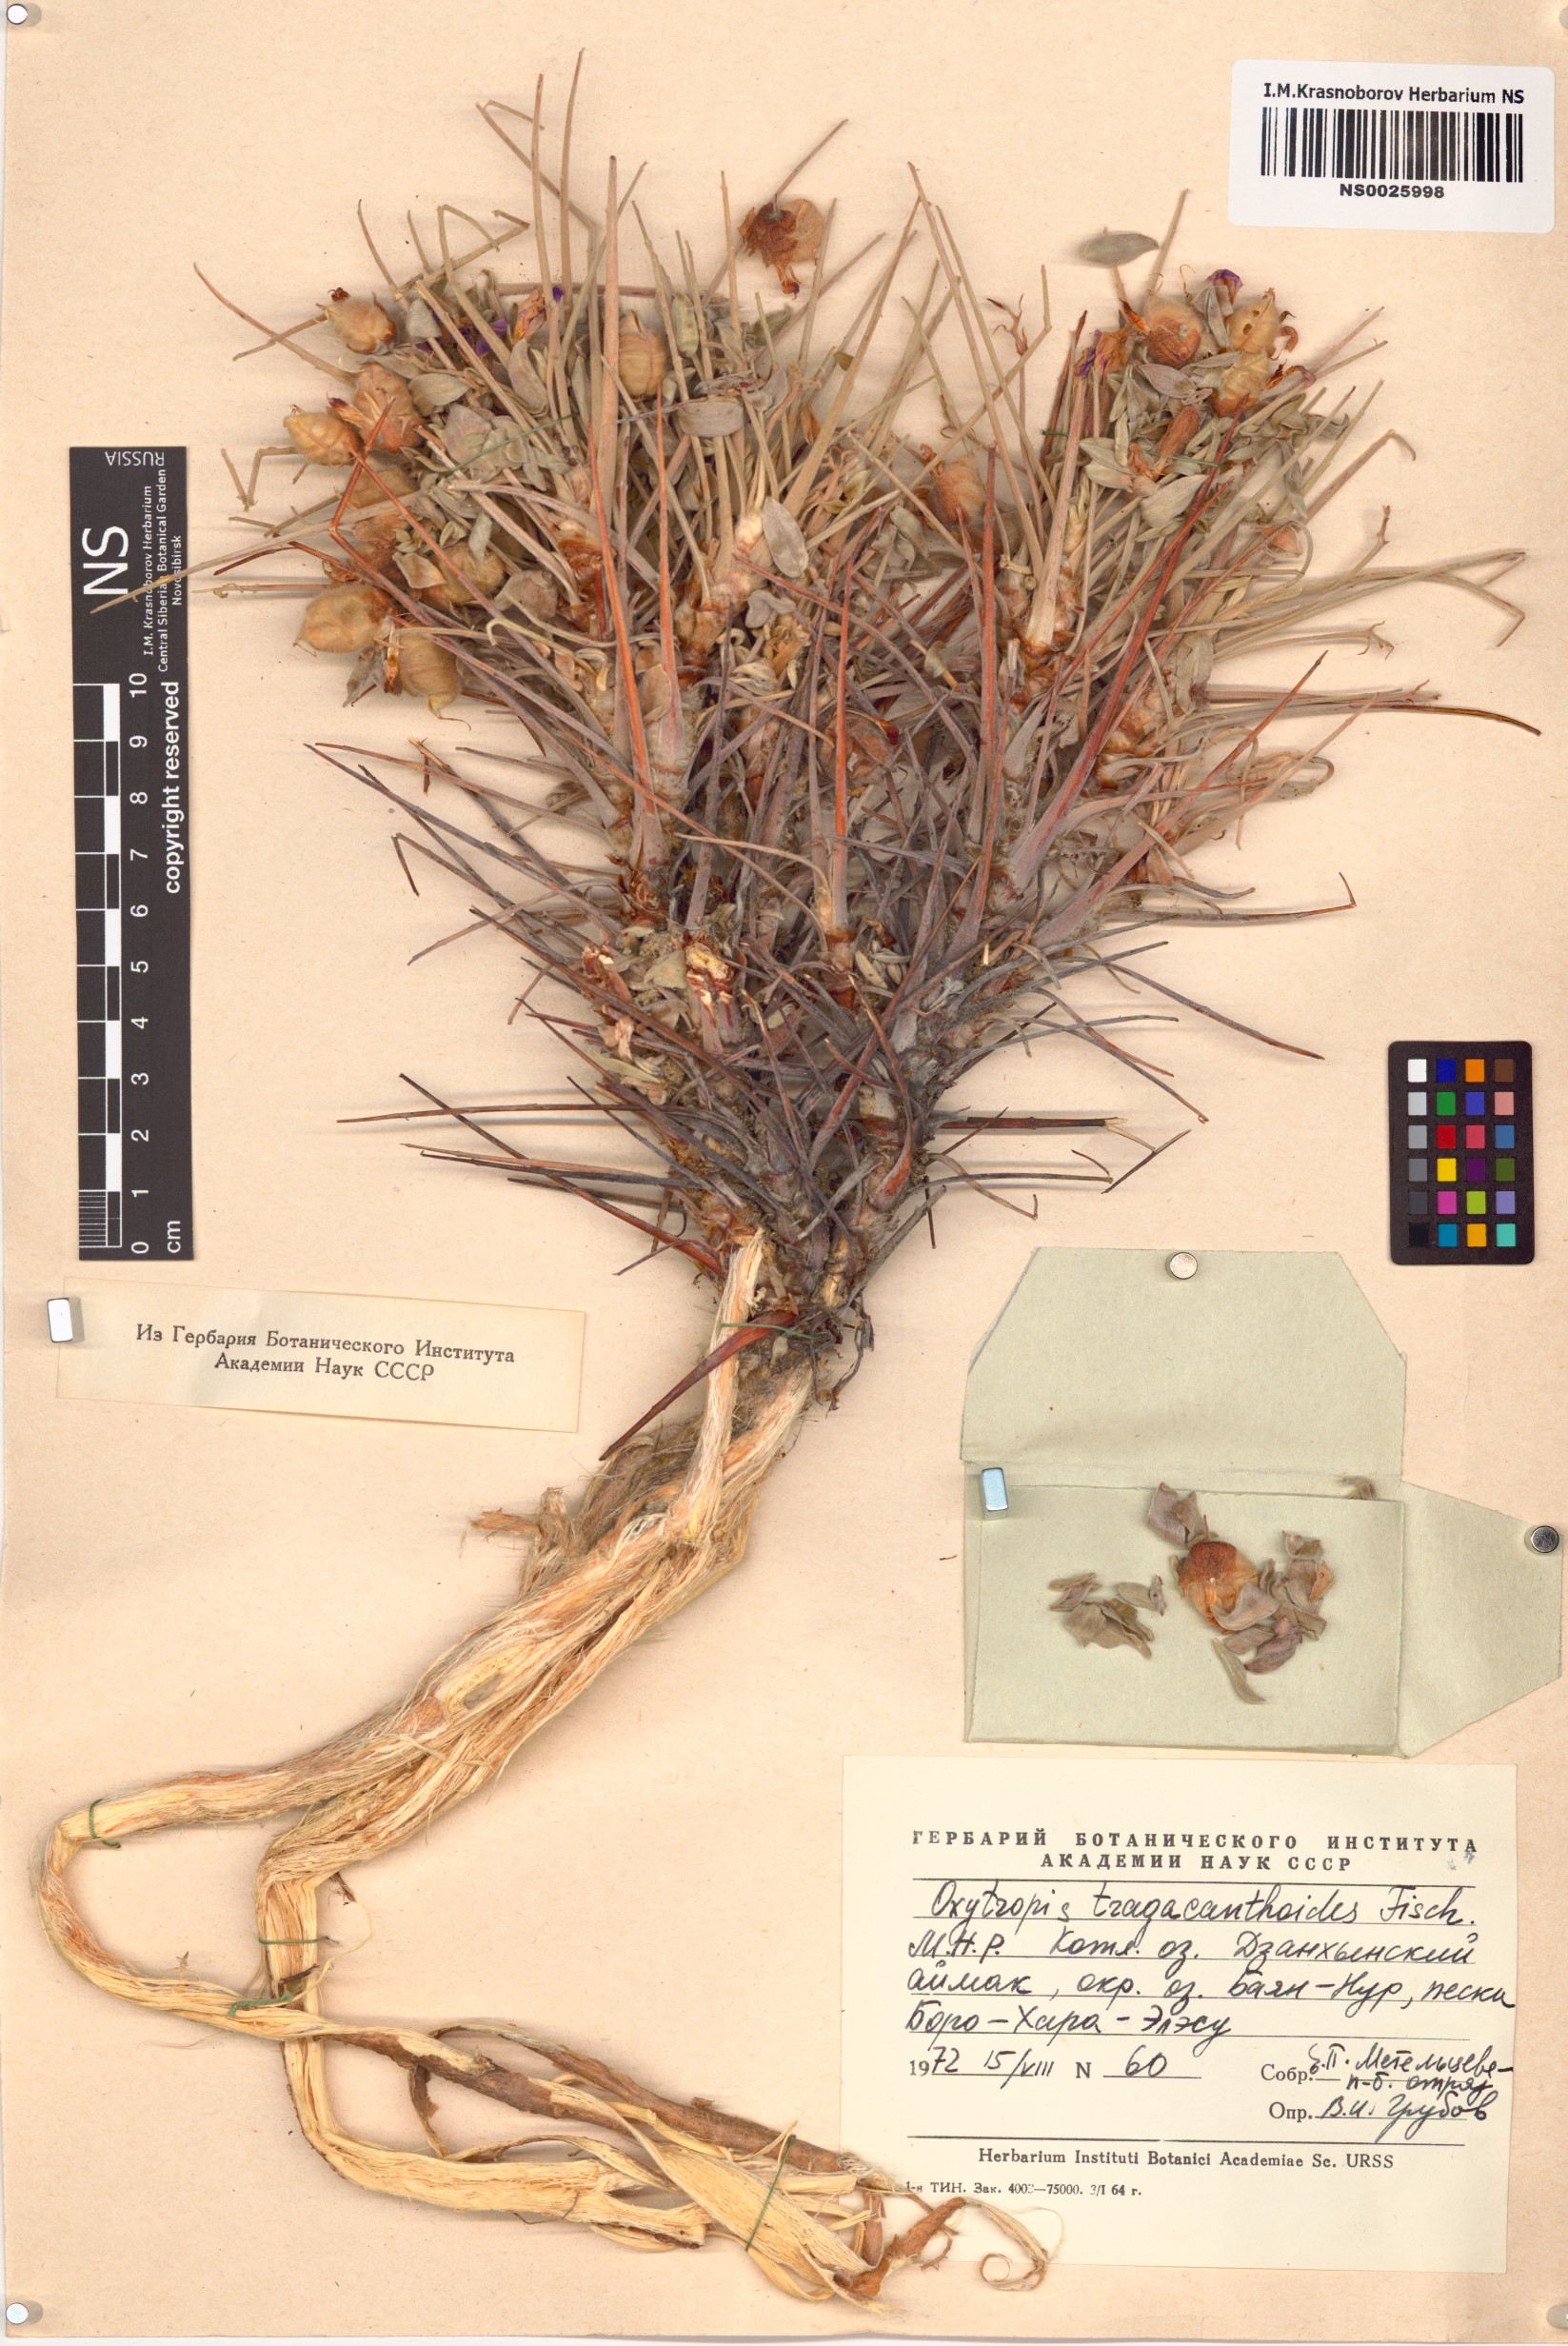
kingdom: Plantae
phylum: Tracheophyta
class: Magnoliopsida
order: Fabales
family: Fabaceae
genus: Oxytropis
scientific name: Oxytropis tragacanthoides
